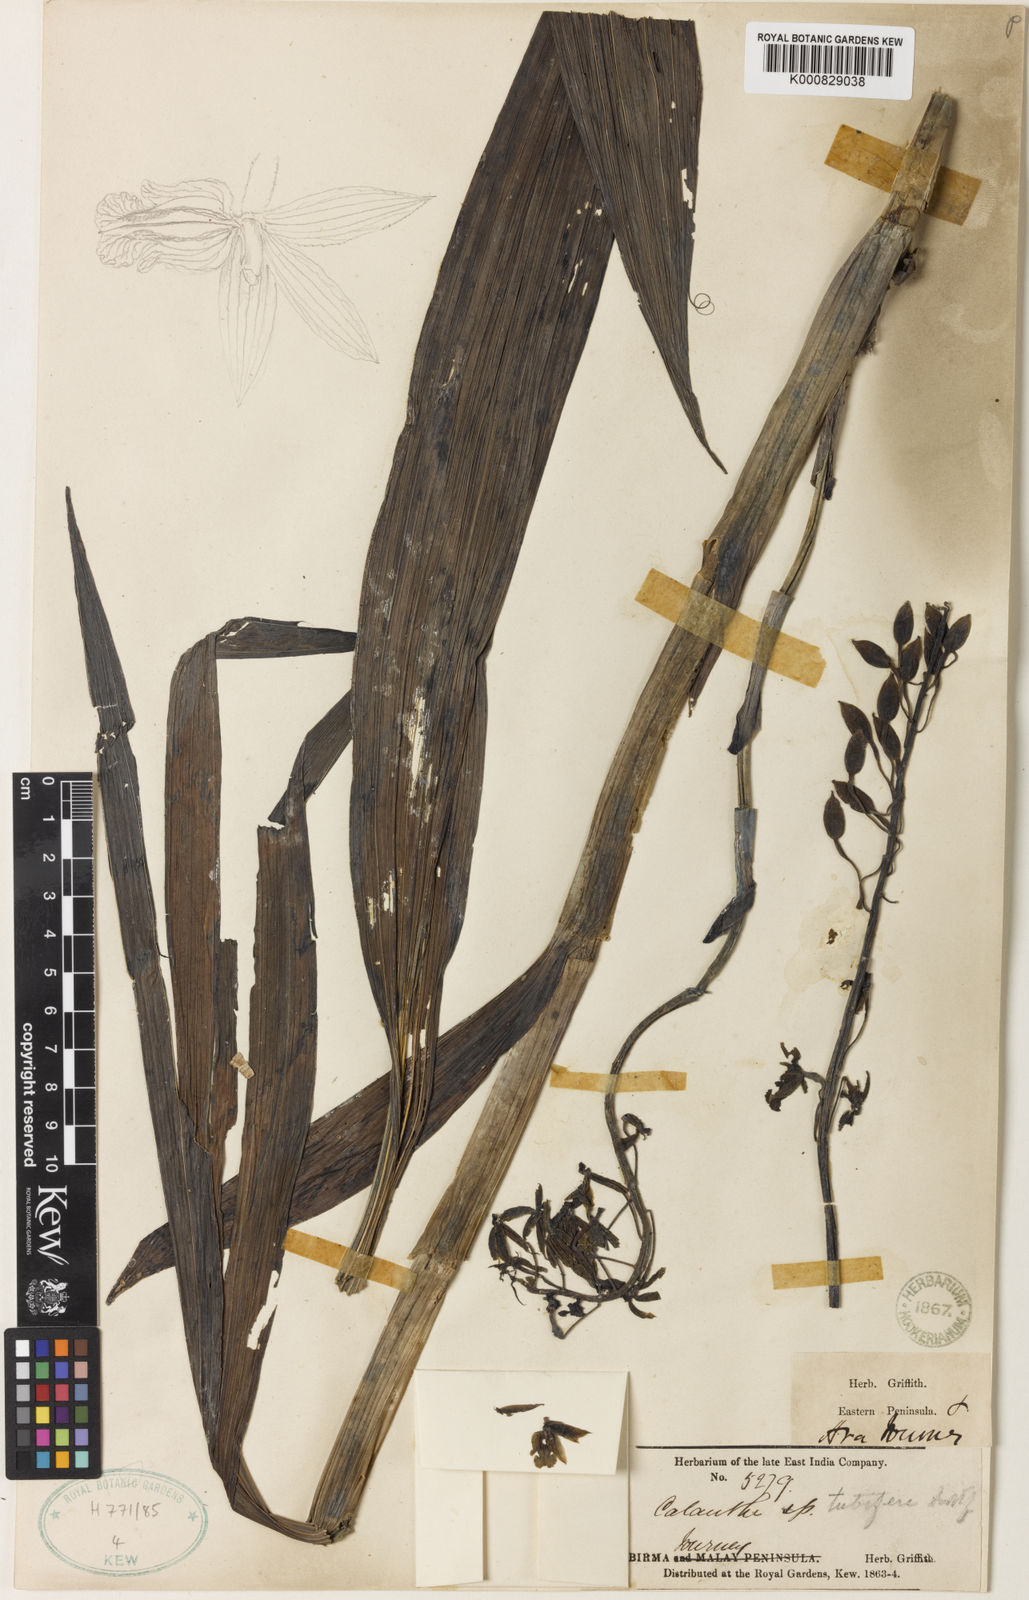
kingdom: Plantae
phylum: Tracheophyta
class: Liliopsida
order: Asparagales
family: Orchidaceae
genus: Calanthe
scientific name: Calanthe obcordata
